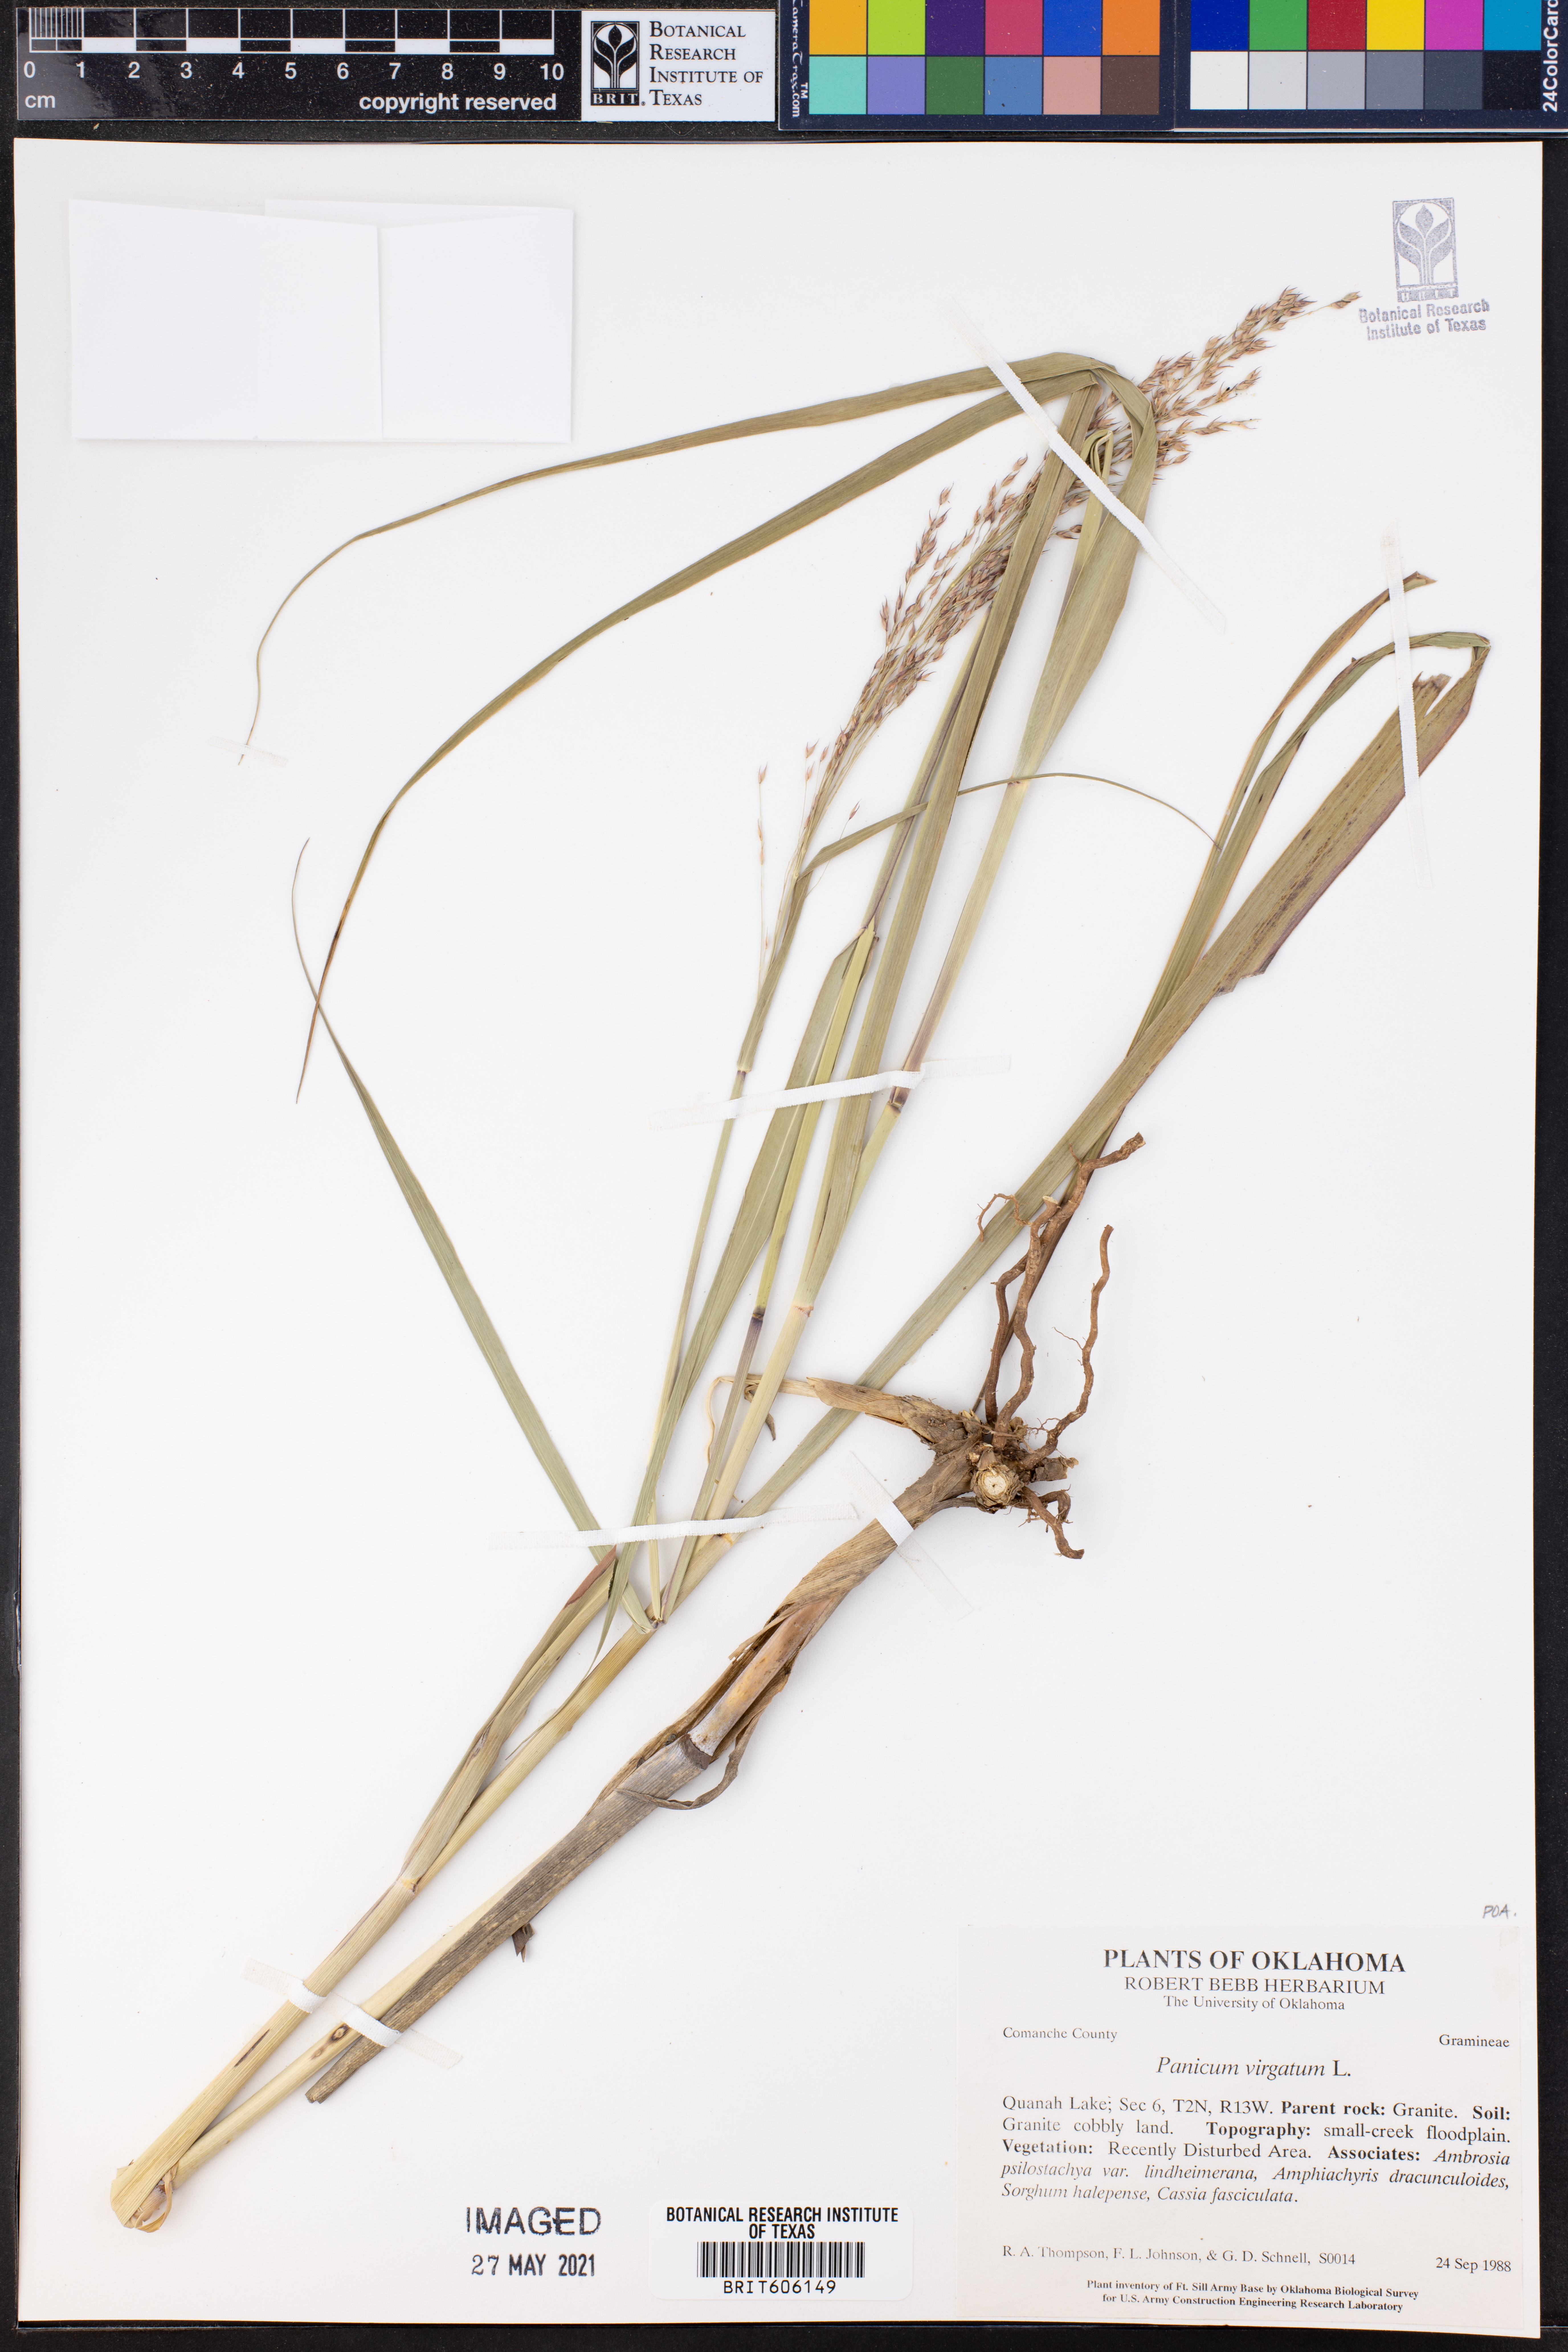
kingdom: Plantae
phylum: Tracheophyta
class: Liliopsida
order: Poales
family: Poaceae
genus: Panicum
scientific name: Panicum virgatum
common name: Switchgrass
